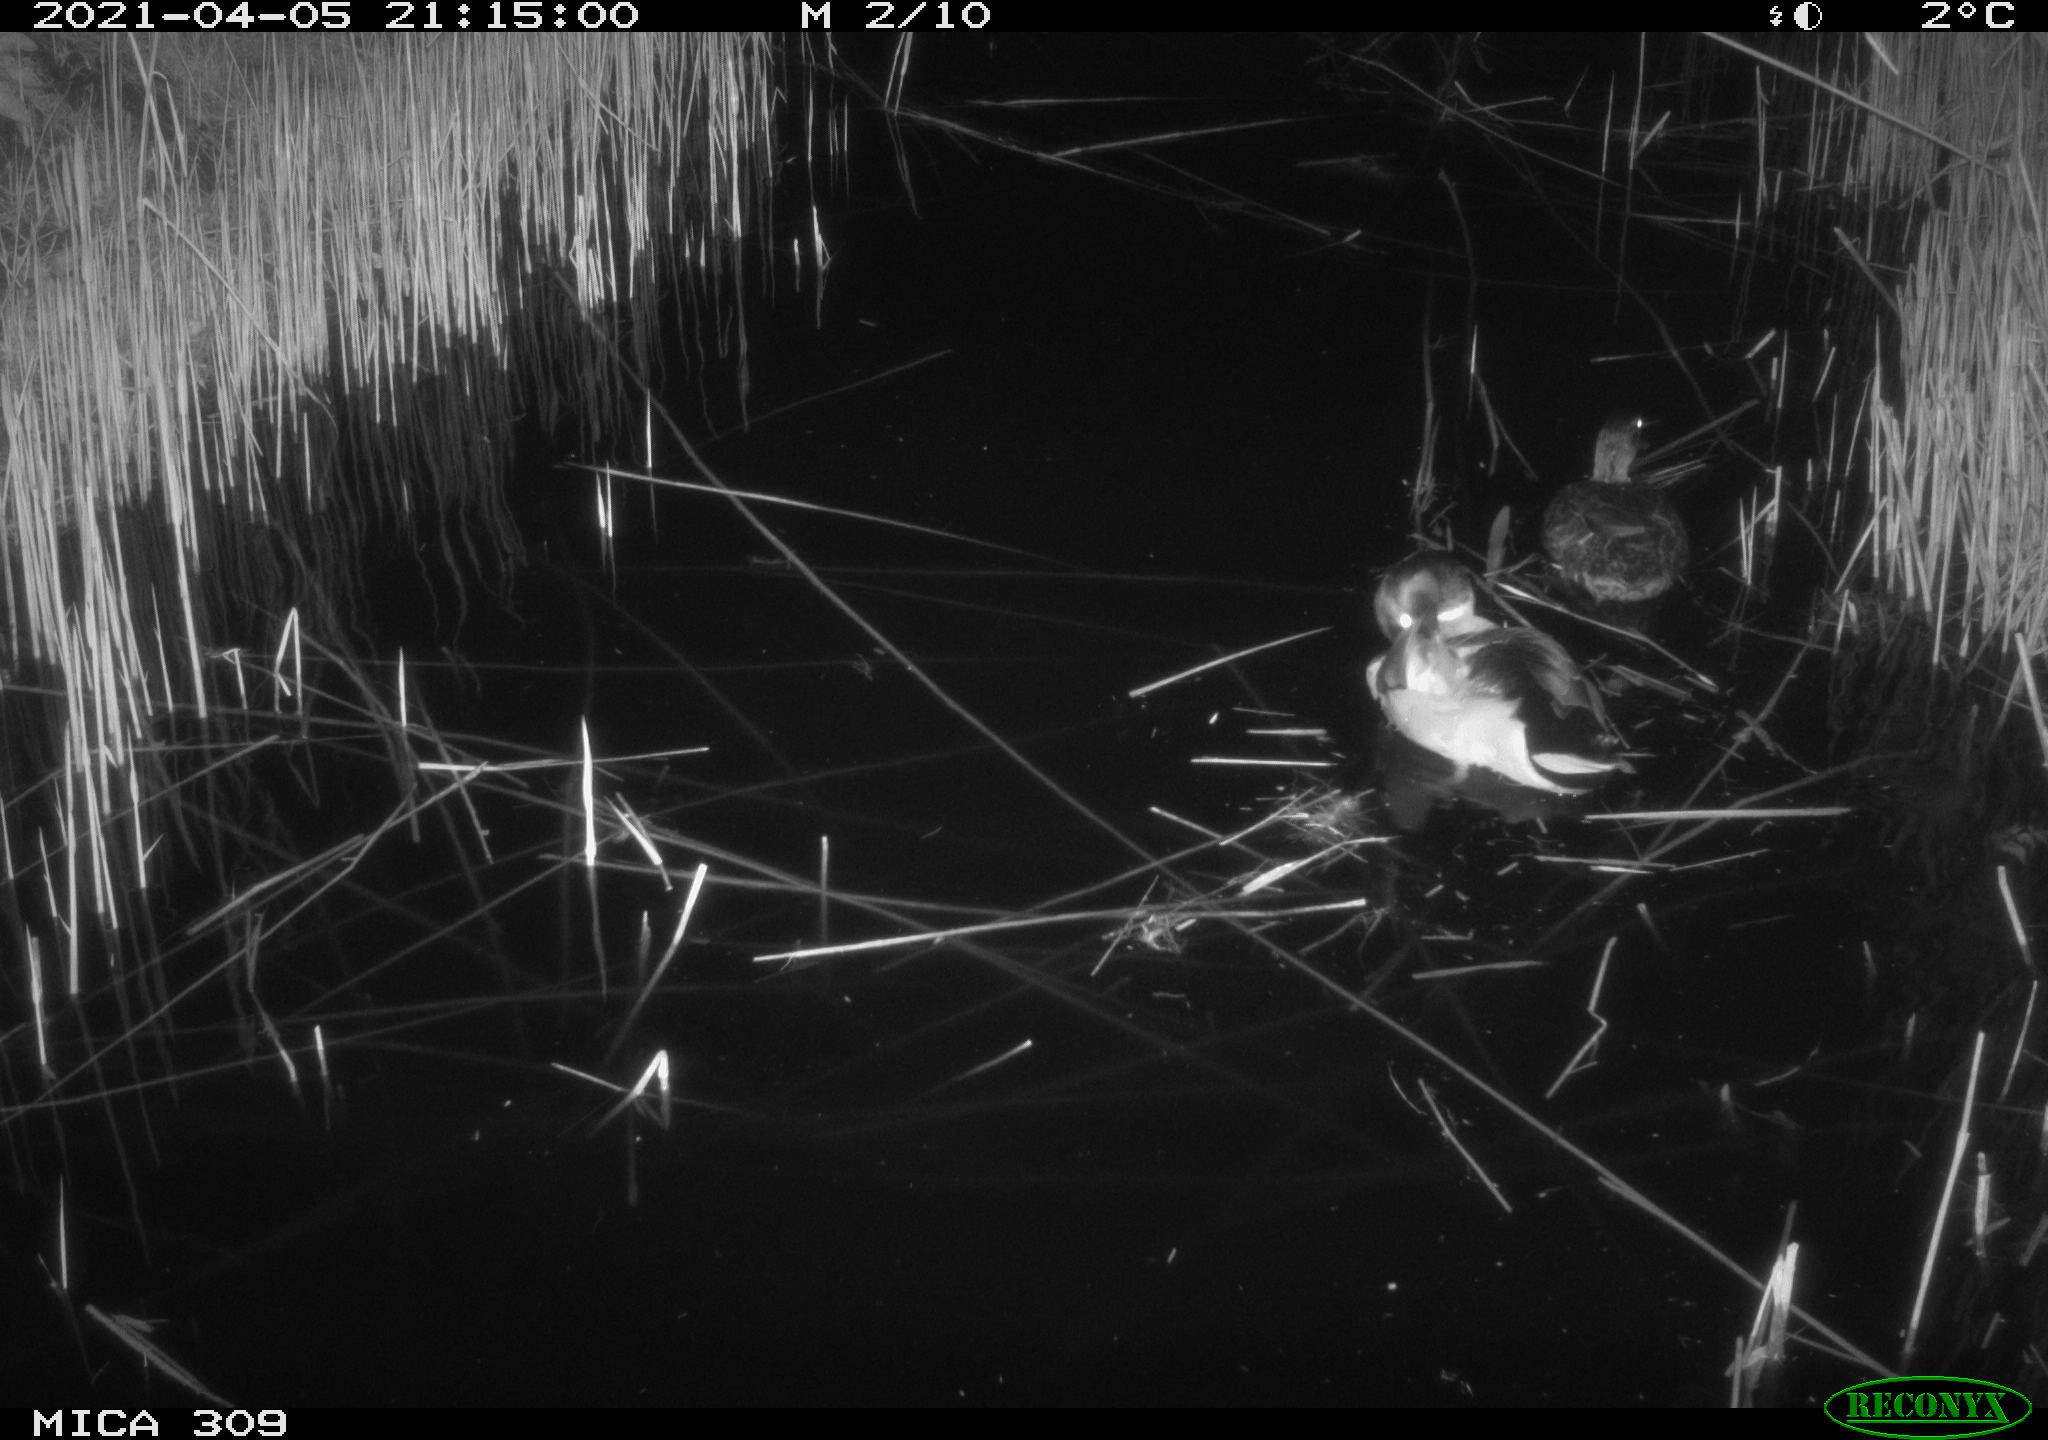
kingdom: Animalia
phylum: Chordata
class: Aves
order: Anseriformes
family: Anatidae
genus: Anas
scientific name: Anas platyrhynchos
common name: Mallard
